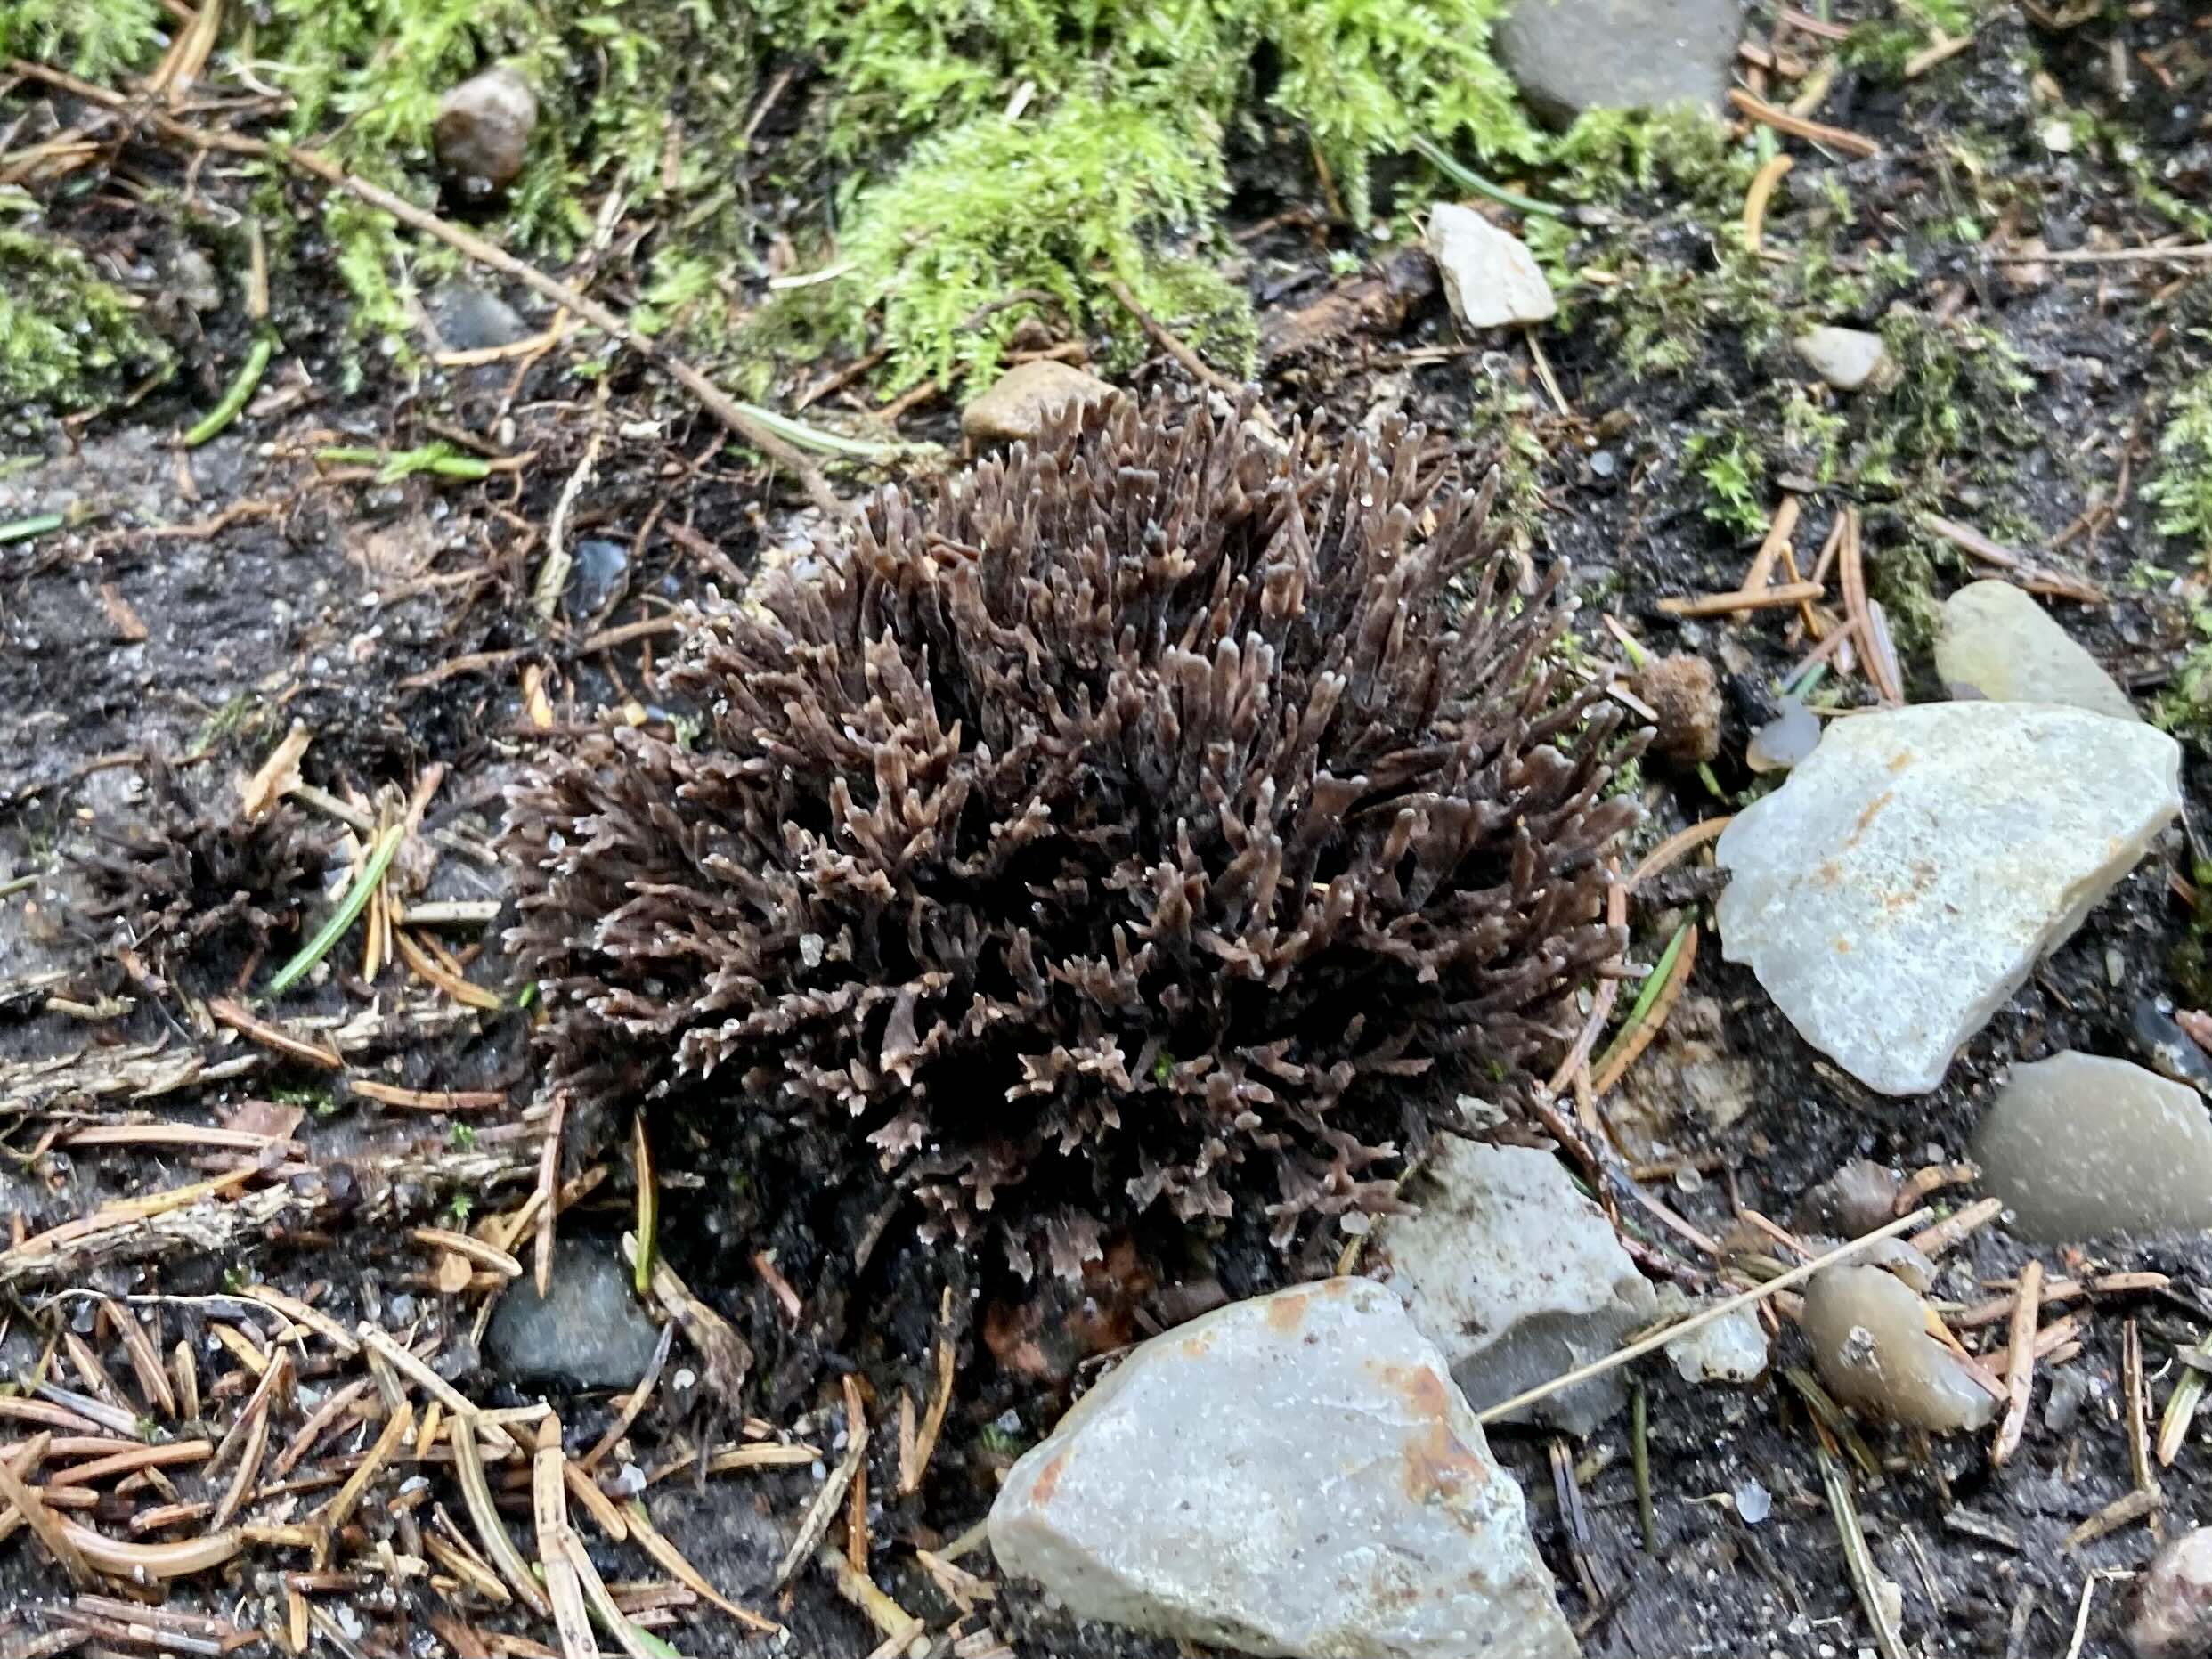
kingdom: Fungi
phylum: Basidiomycota
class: Agaricomycetes
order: Thelephorales
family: Thelephoraceae
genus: Thelephora
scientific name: Thelephora palmata
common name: grenet frynsesvamp
